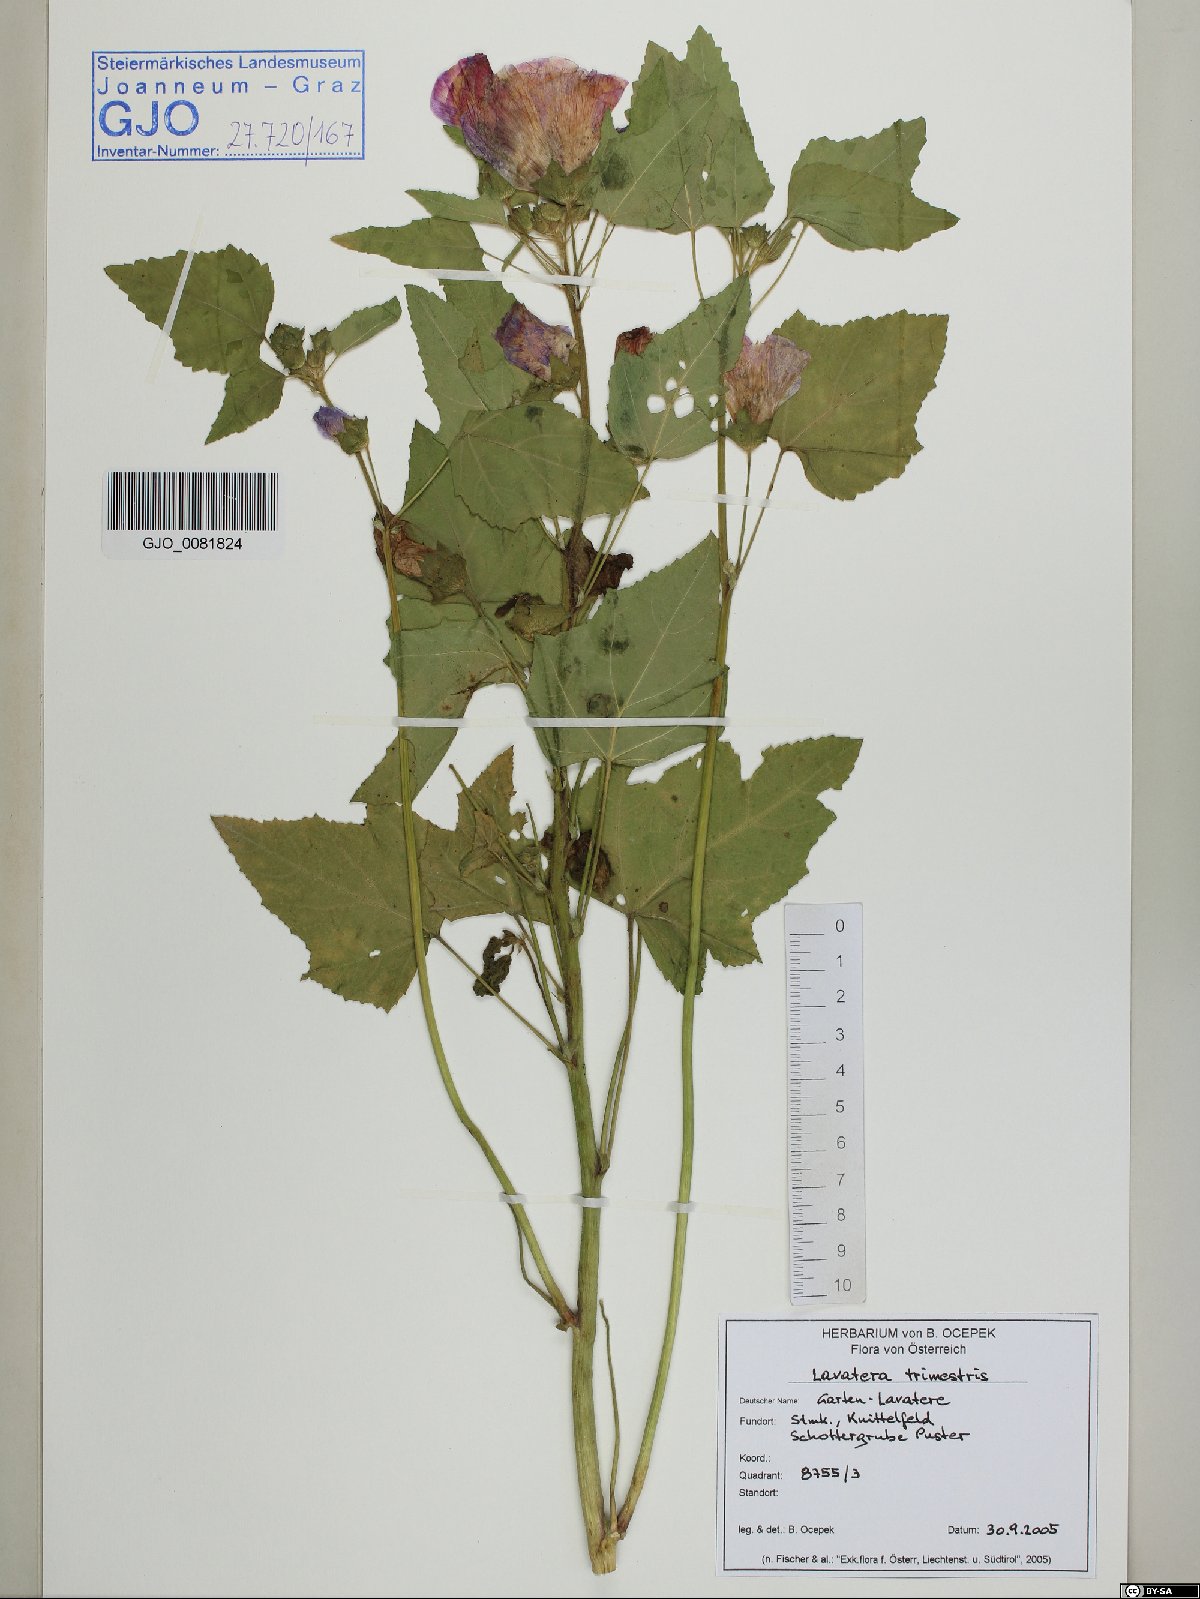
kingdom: Plantae
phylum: Tracheophyta
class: Magnoliopsida
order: Malvales
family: Malvaceae
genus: Malva
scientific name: Malva trimestris
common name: Royal mallow
